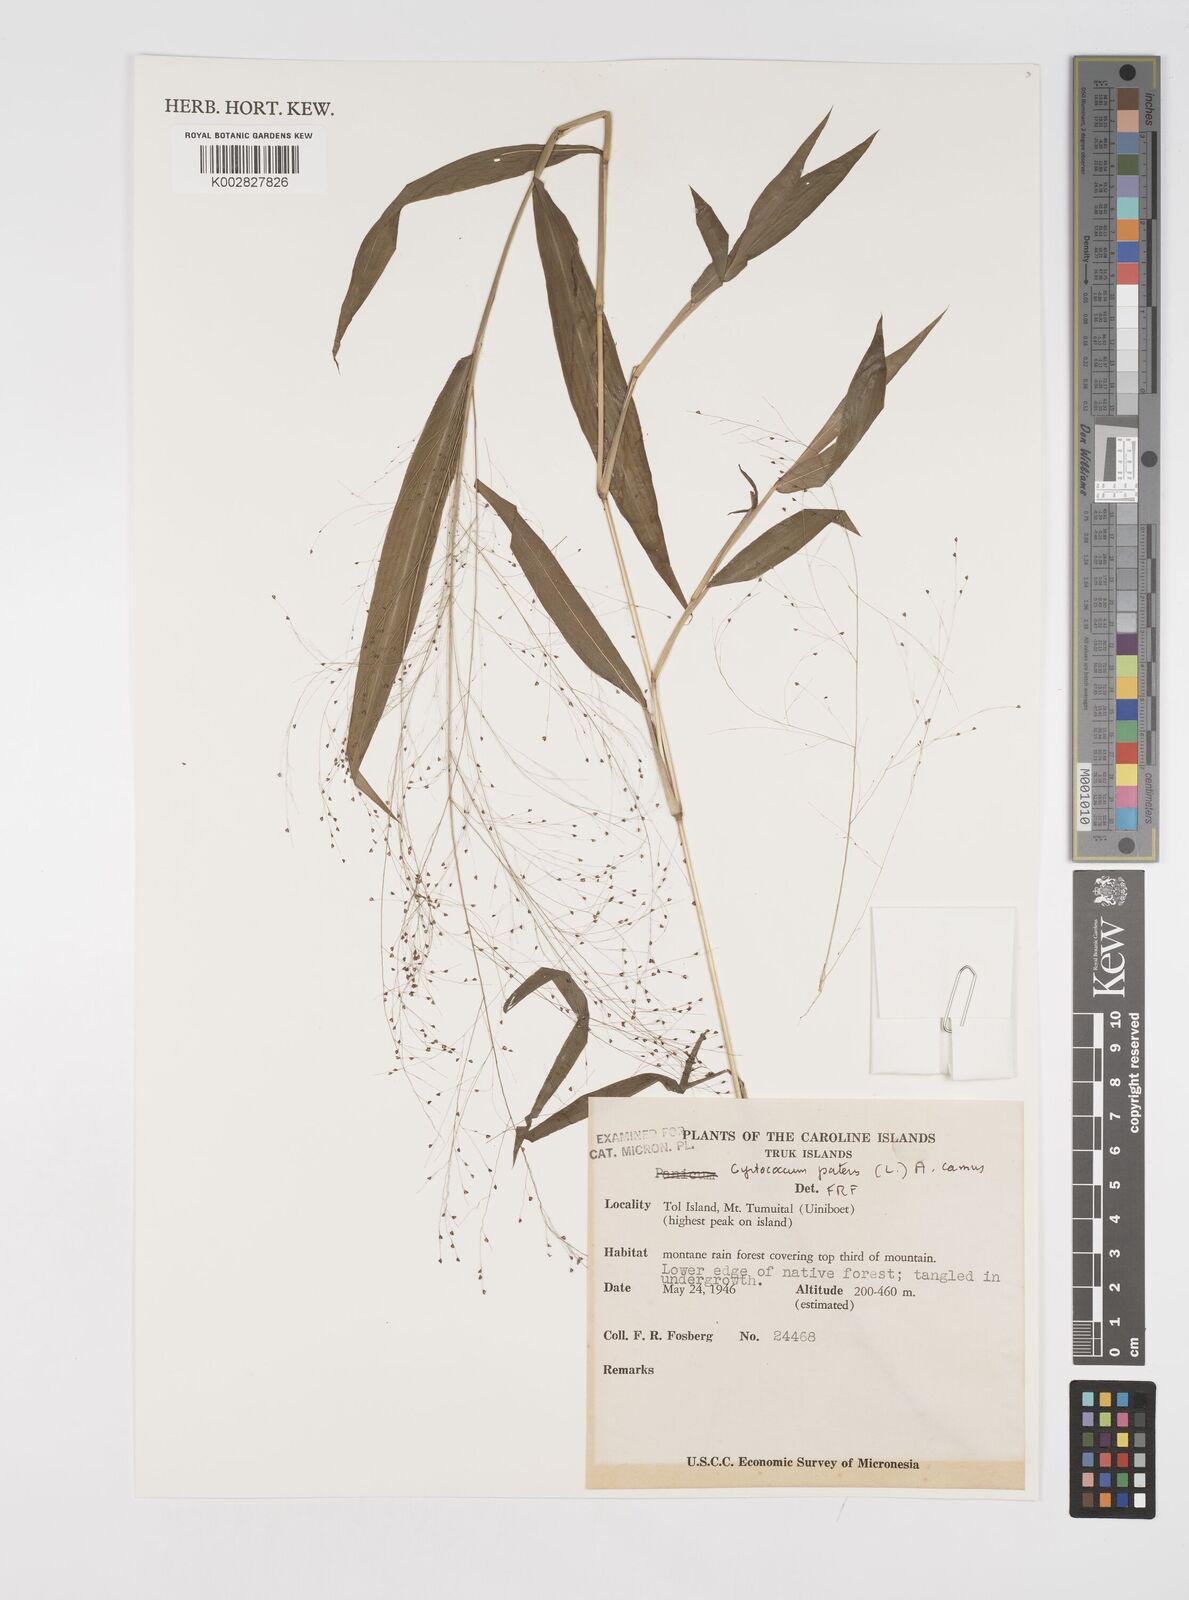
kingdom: Plantae
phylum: Tracheophyta
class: Liliopsida
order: Poales
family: Poaceae
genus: Cyrtococcum
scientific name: Cyrtococcum patens
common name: Broad-leaved bowgrass
